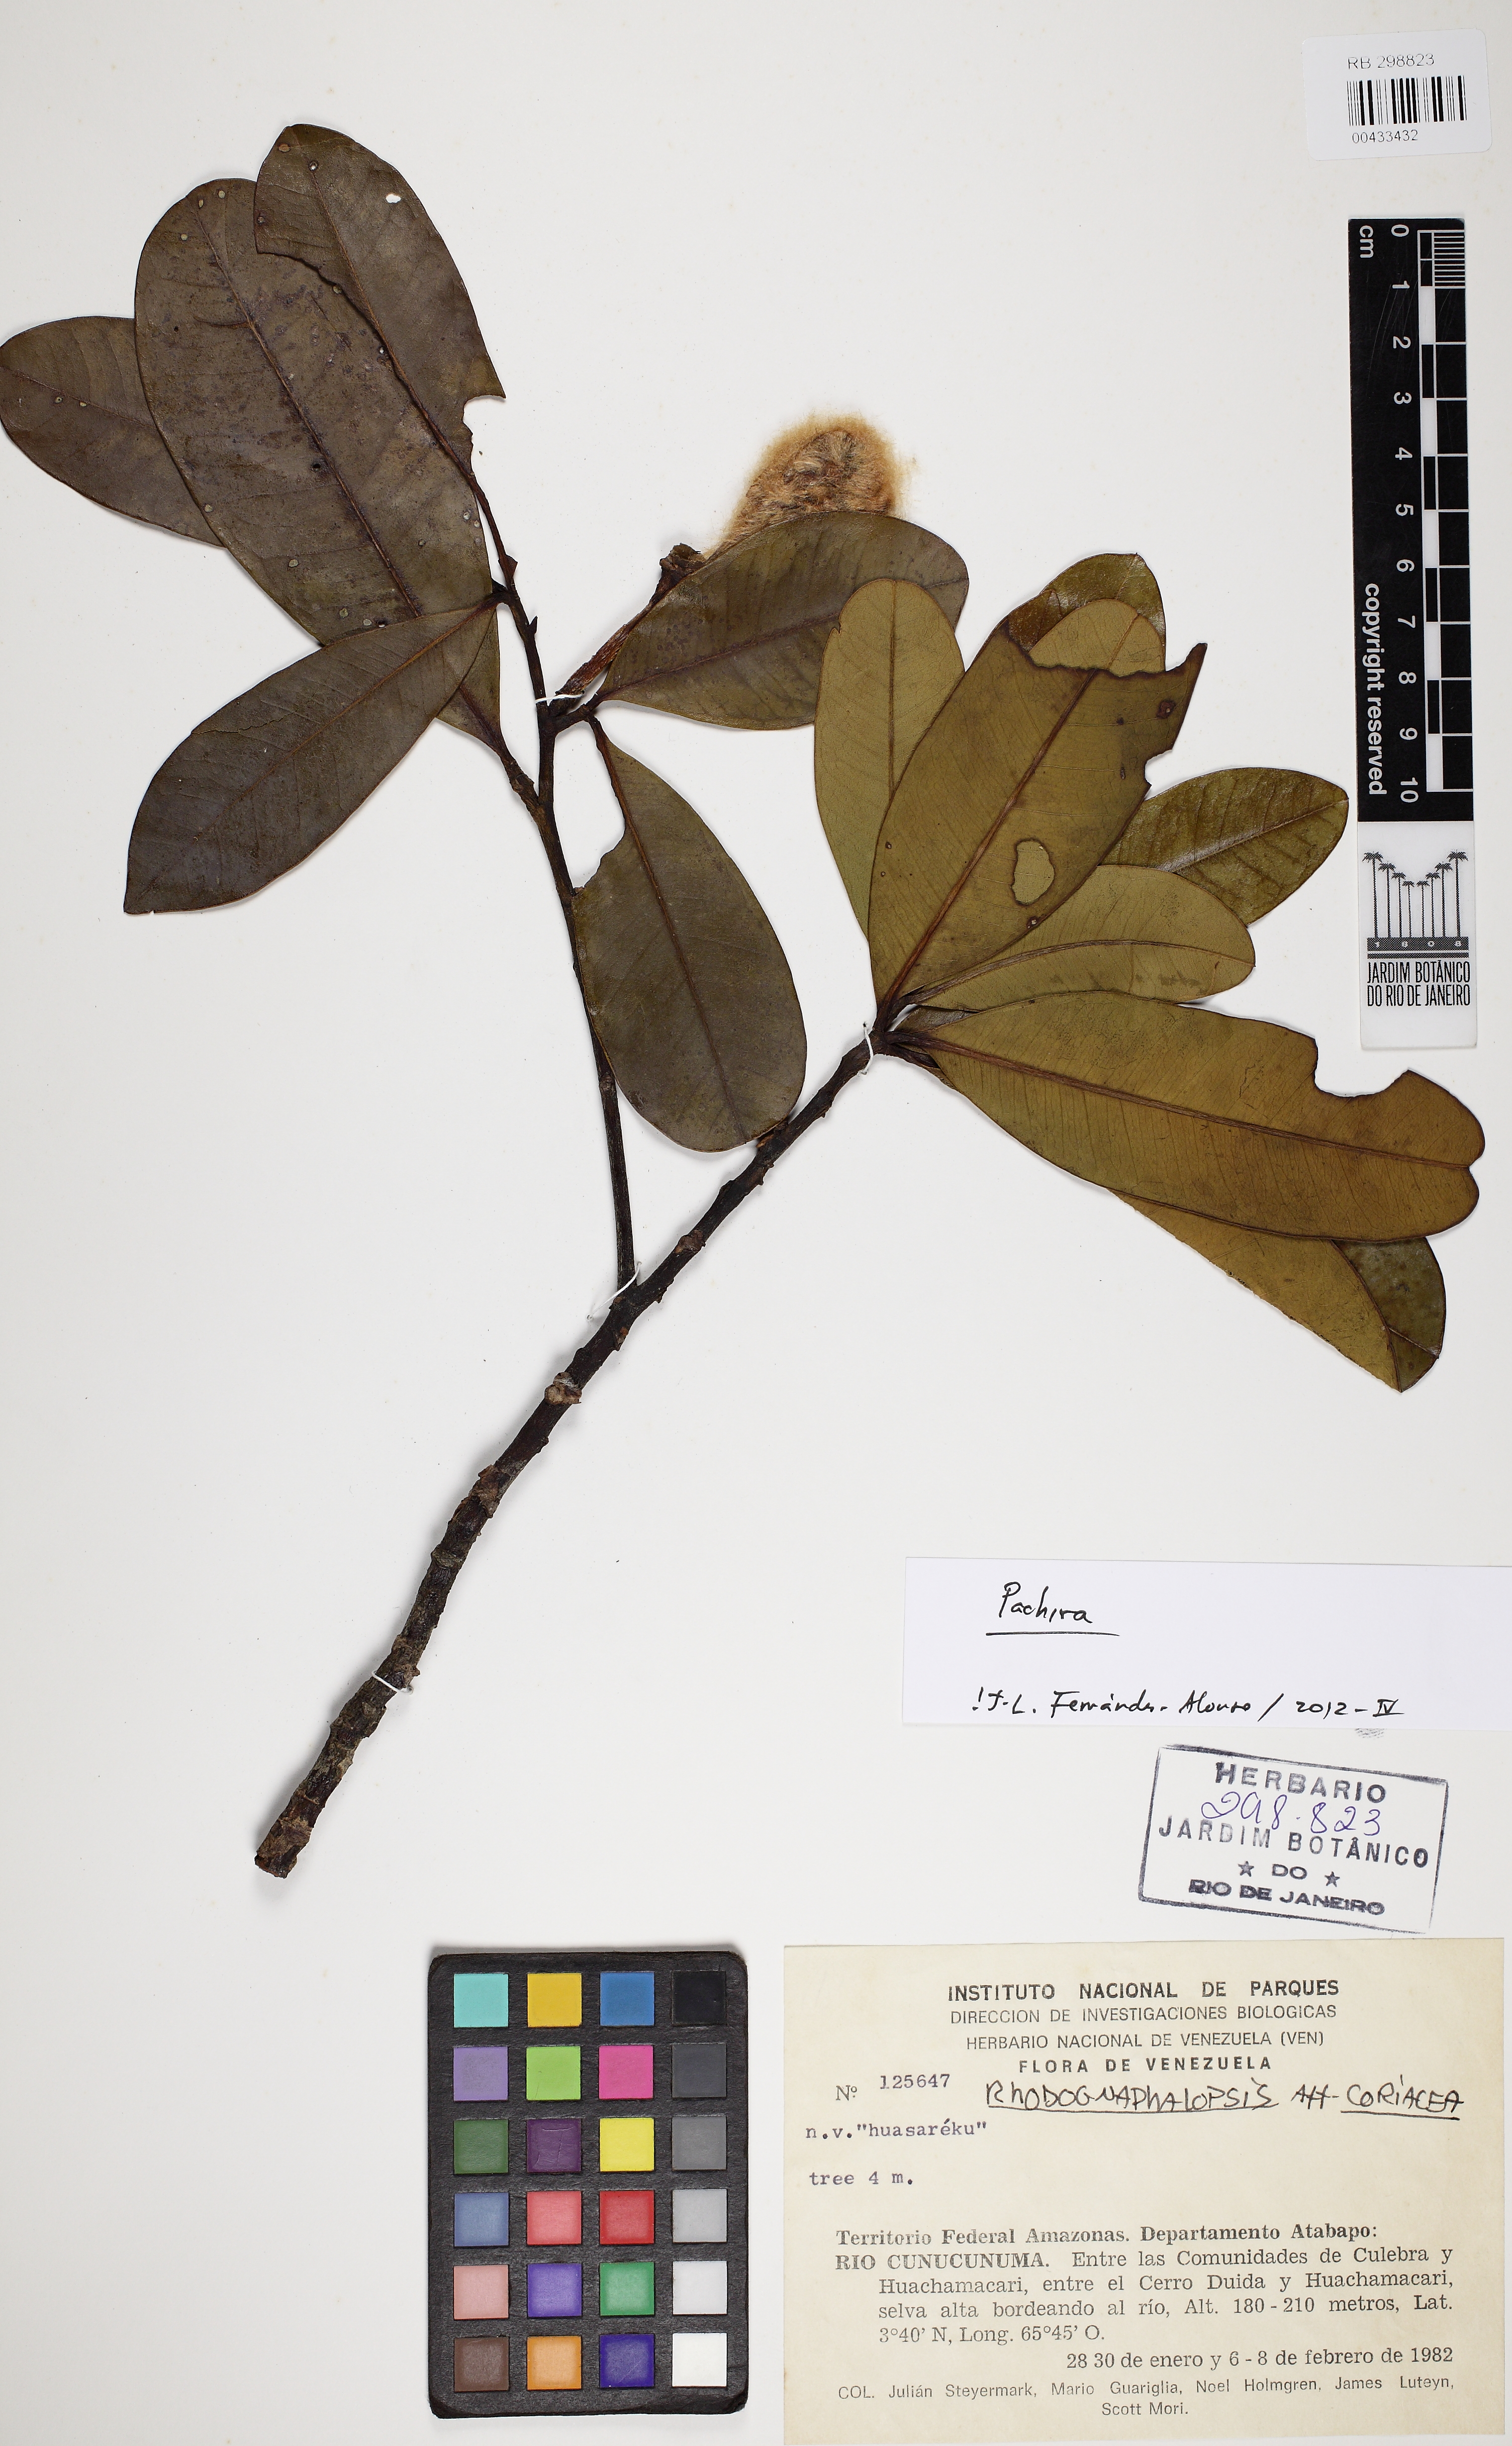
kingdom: Plantae
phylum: Tracheophyta
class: Magnoliopsida
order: Malvales
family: Malvaceae
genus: Pachira
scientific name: Pachira pseudofaroensis
